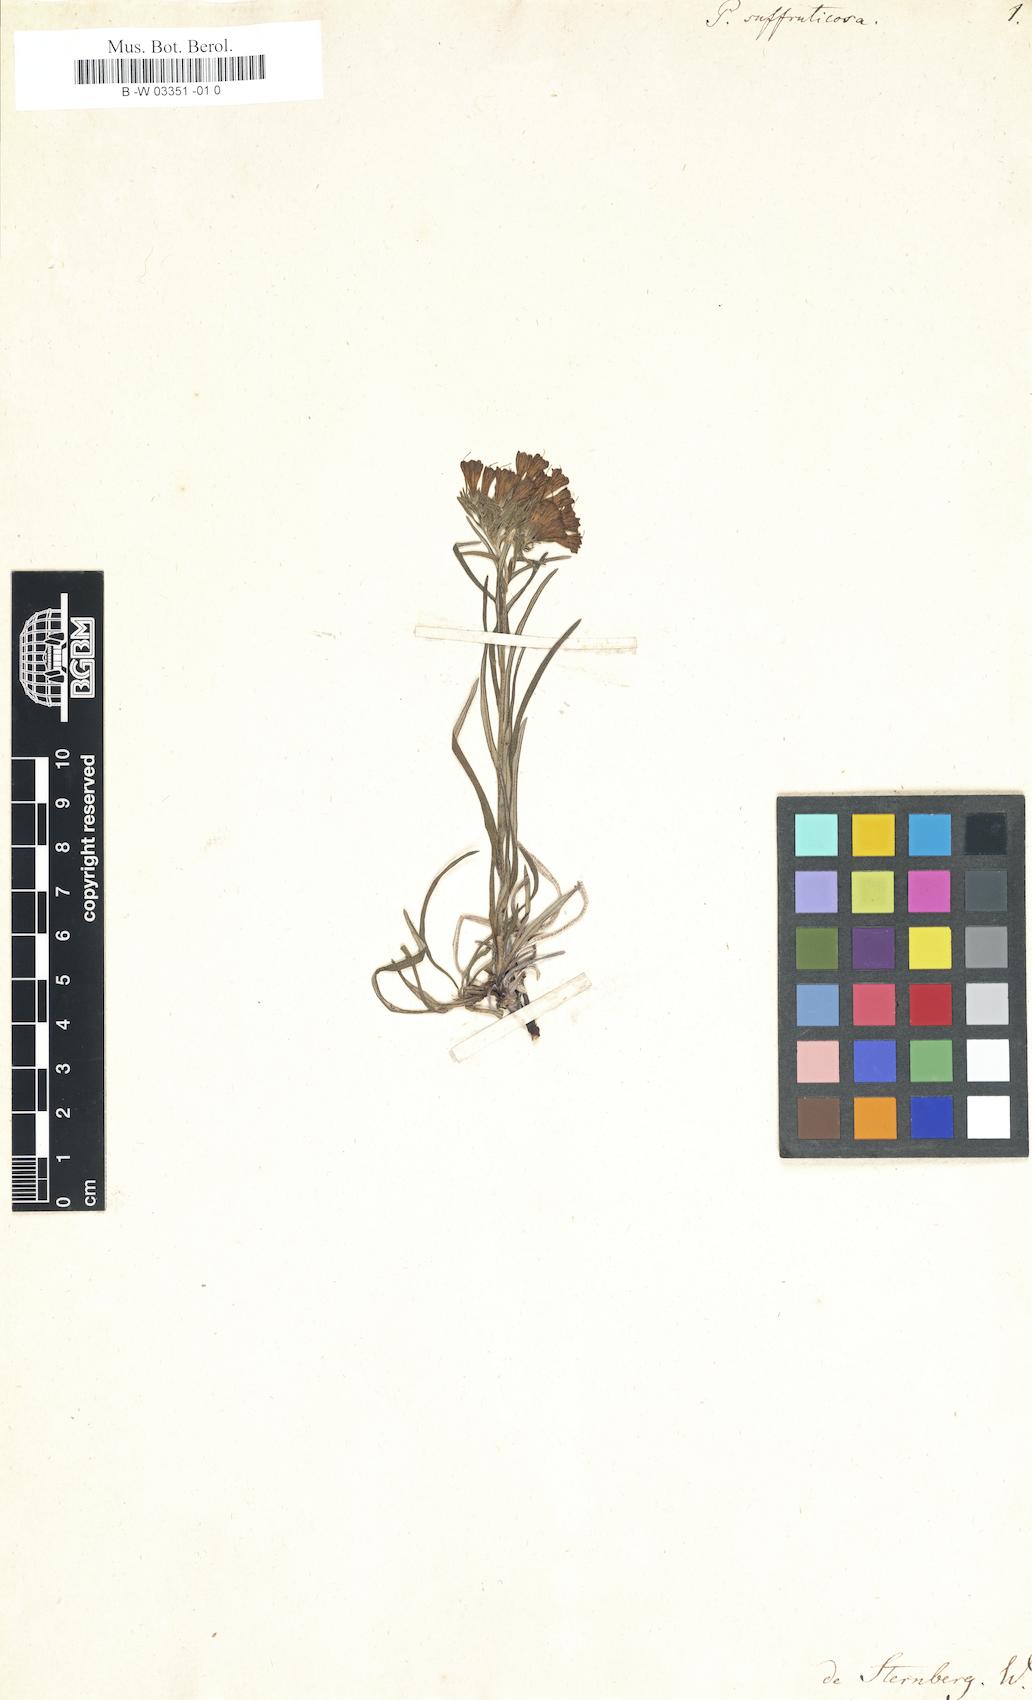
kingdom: Plantae
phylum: Tracheophyta
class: Magnoliopsida
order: Boraginales
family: Boraginaceae
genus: Moltkia
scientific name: Moltkia suffruticosa
